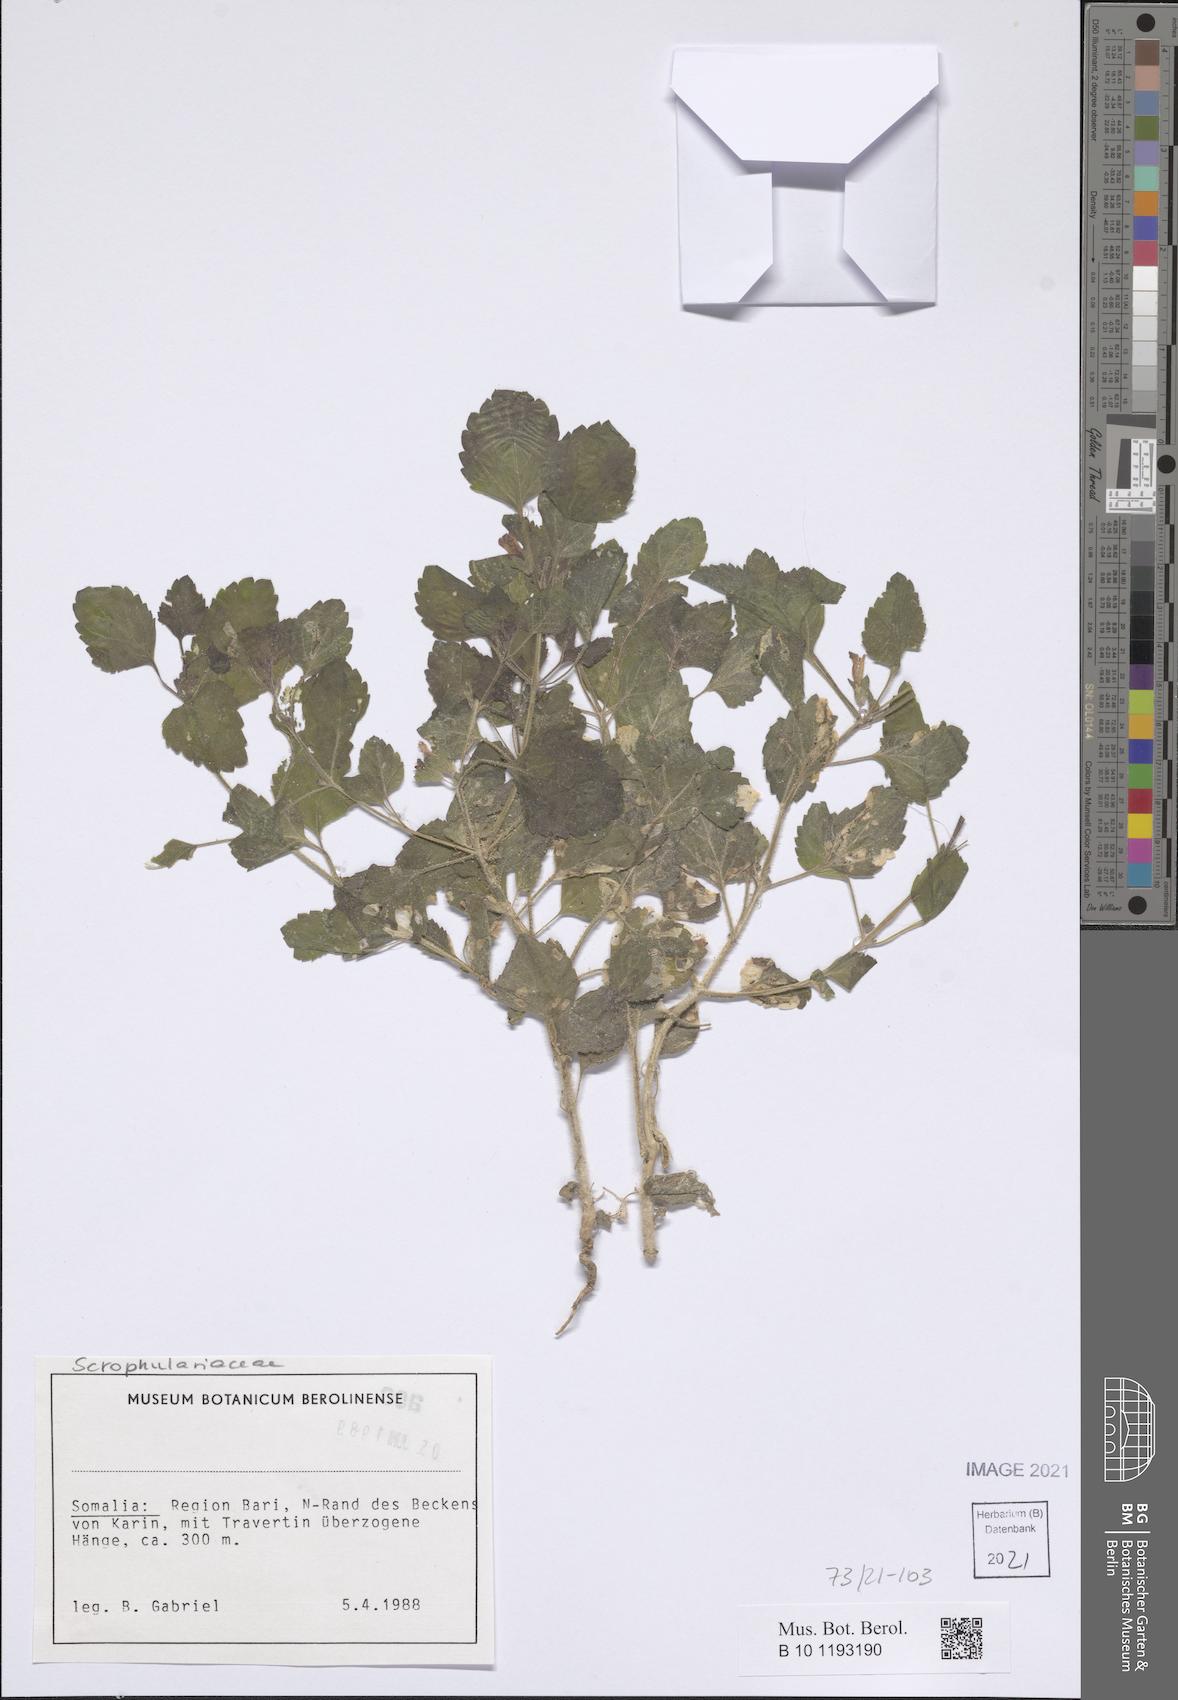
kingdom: Plantae
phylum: Tracheophyta
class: Magnoliopsida
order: Lamiales
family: Scrophulariaceae
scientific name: Scrophulariaceae
